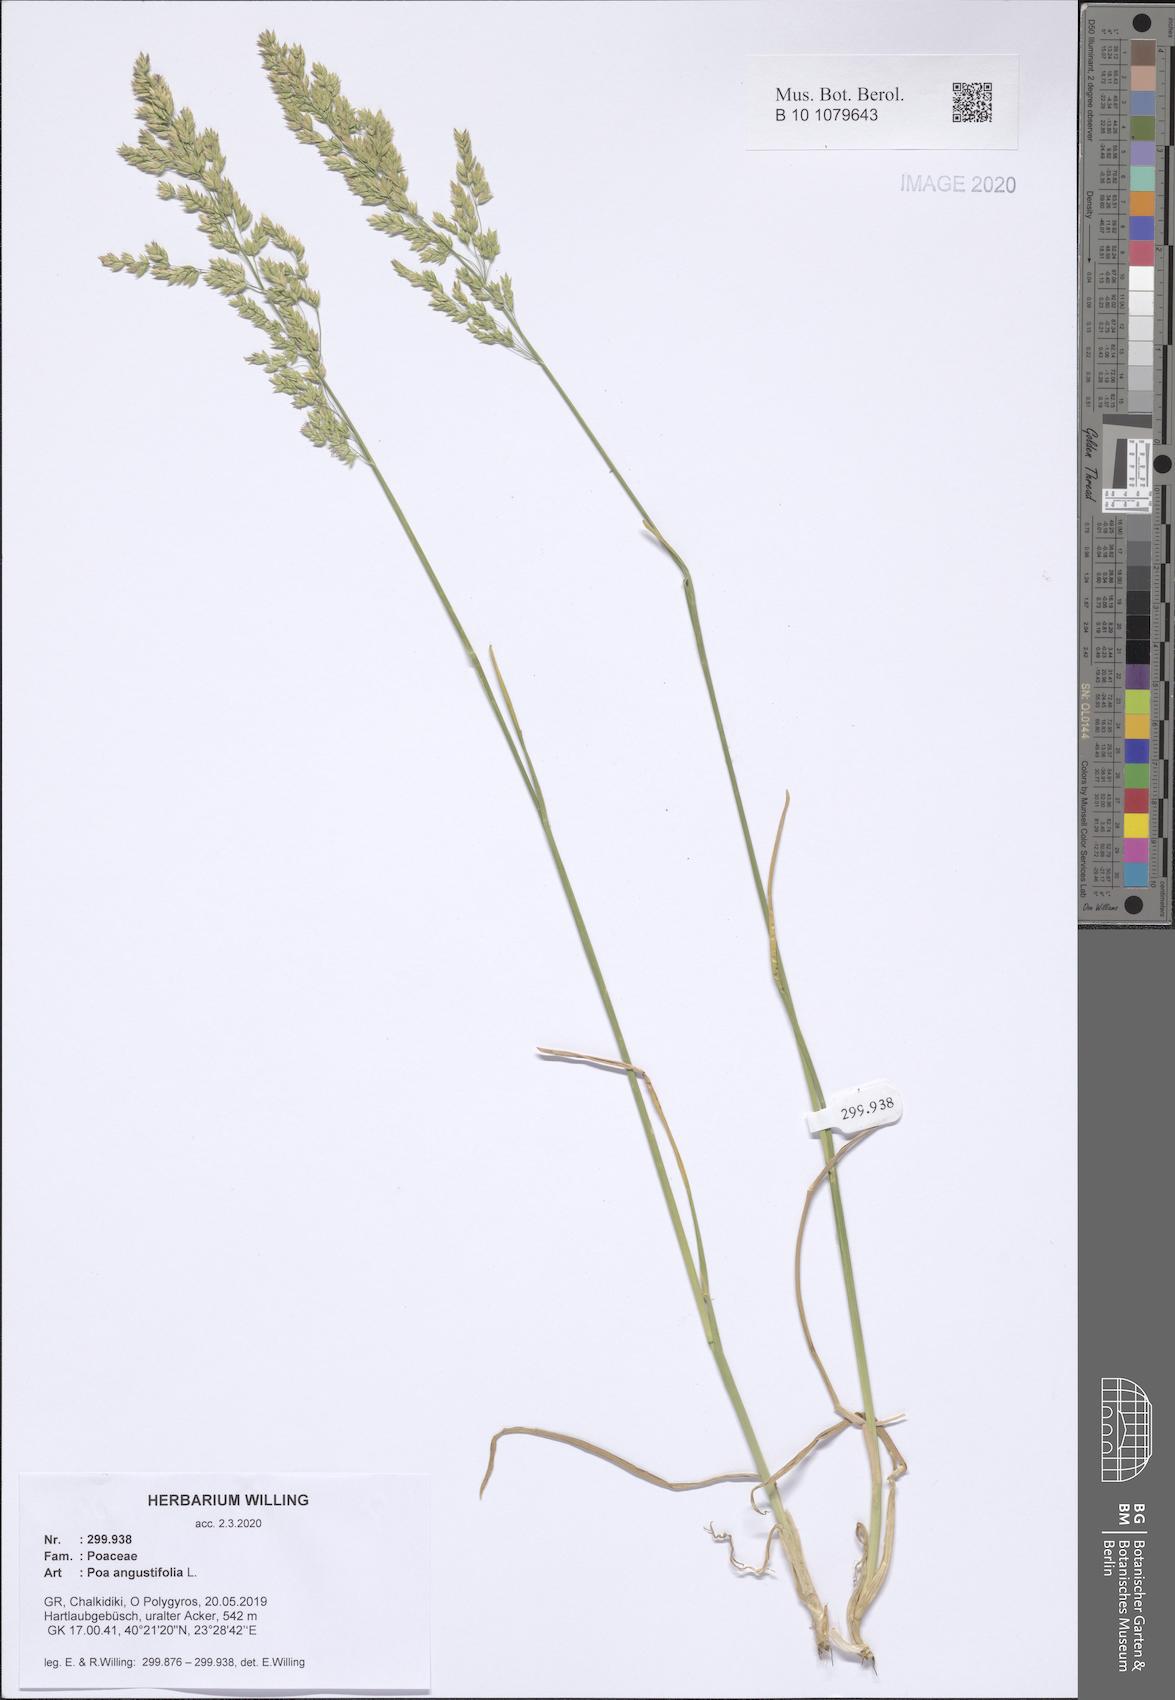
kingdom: Plantae
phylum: Tracheophyta
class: Liliopsida
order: Poales
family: Poaceae
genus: Poa
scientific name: Poa angustifolia
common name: Narrow-leaved meadow-grass
